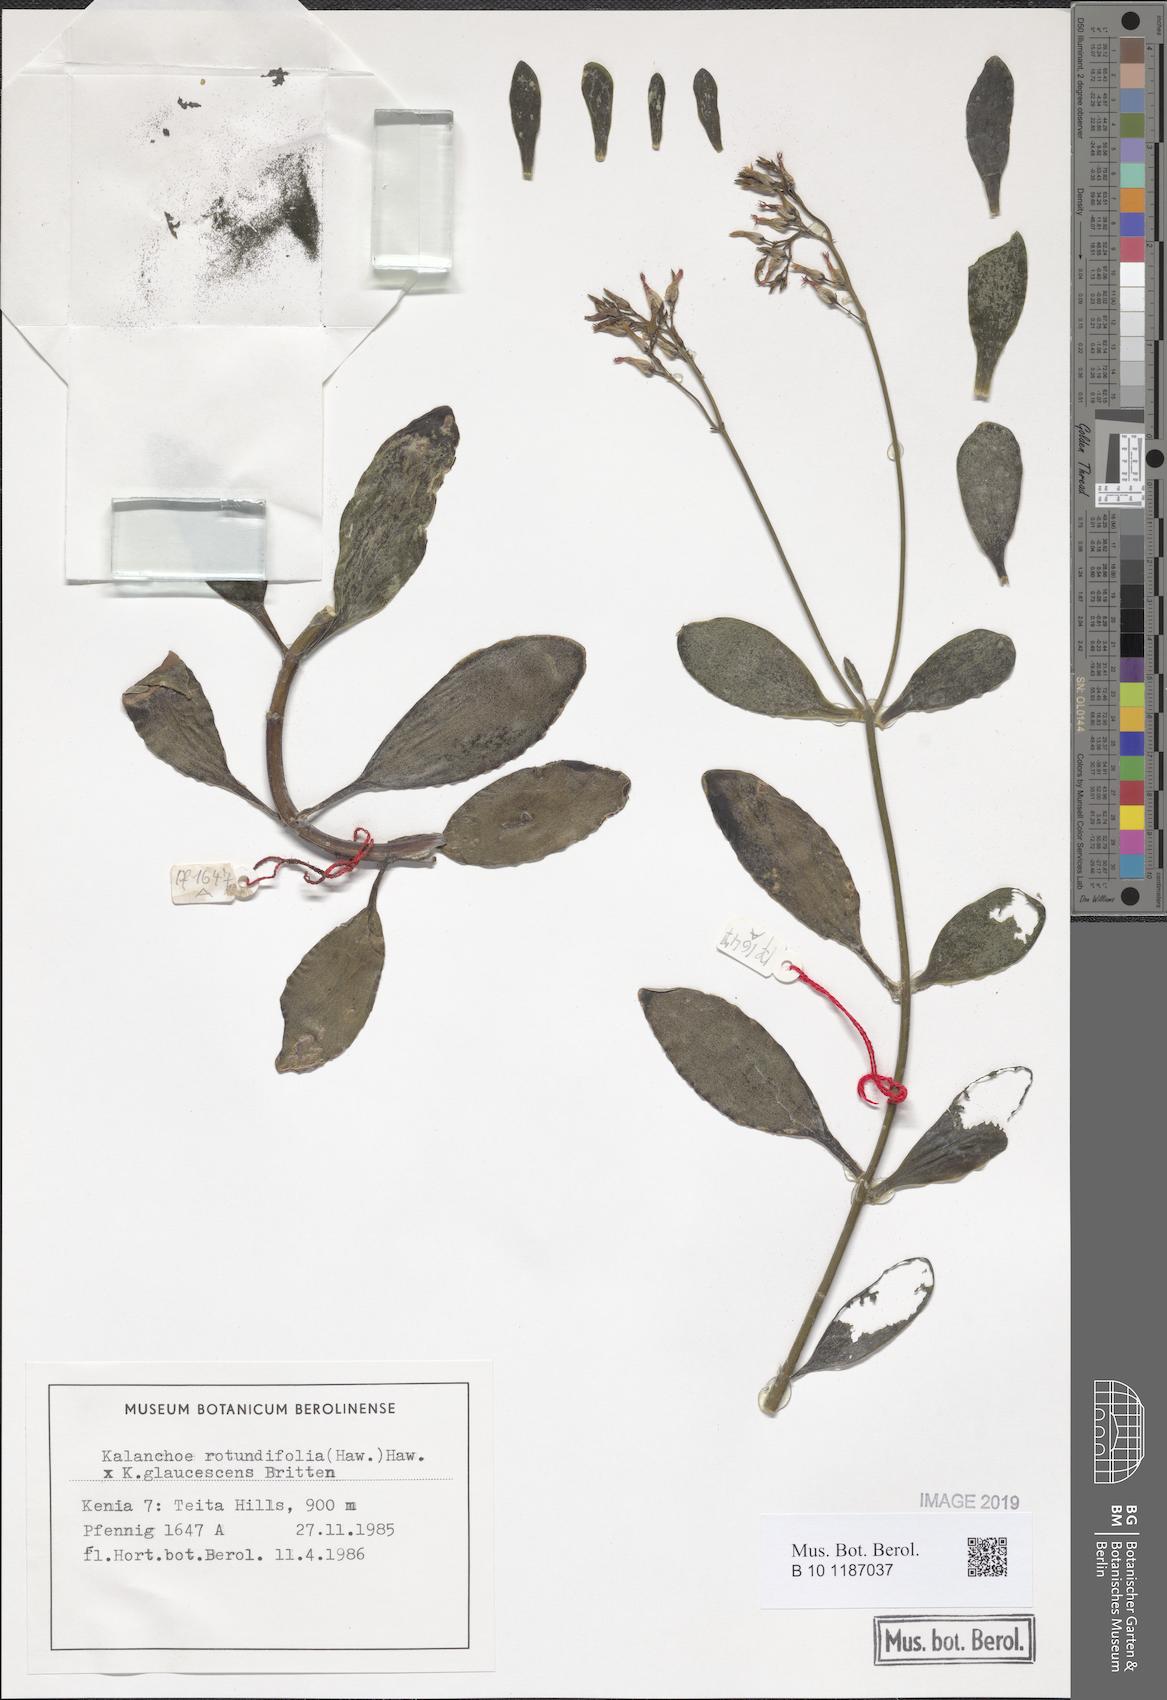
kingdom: Plantae
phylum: Tracheophyta
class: Magnoliopsida
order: Saxifragales
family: Crassulaceae
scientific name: Crassulaceae
